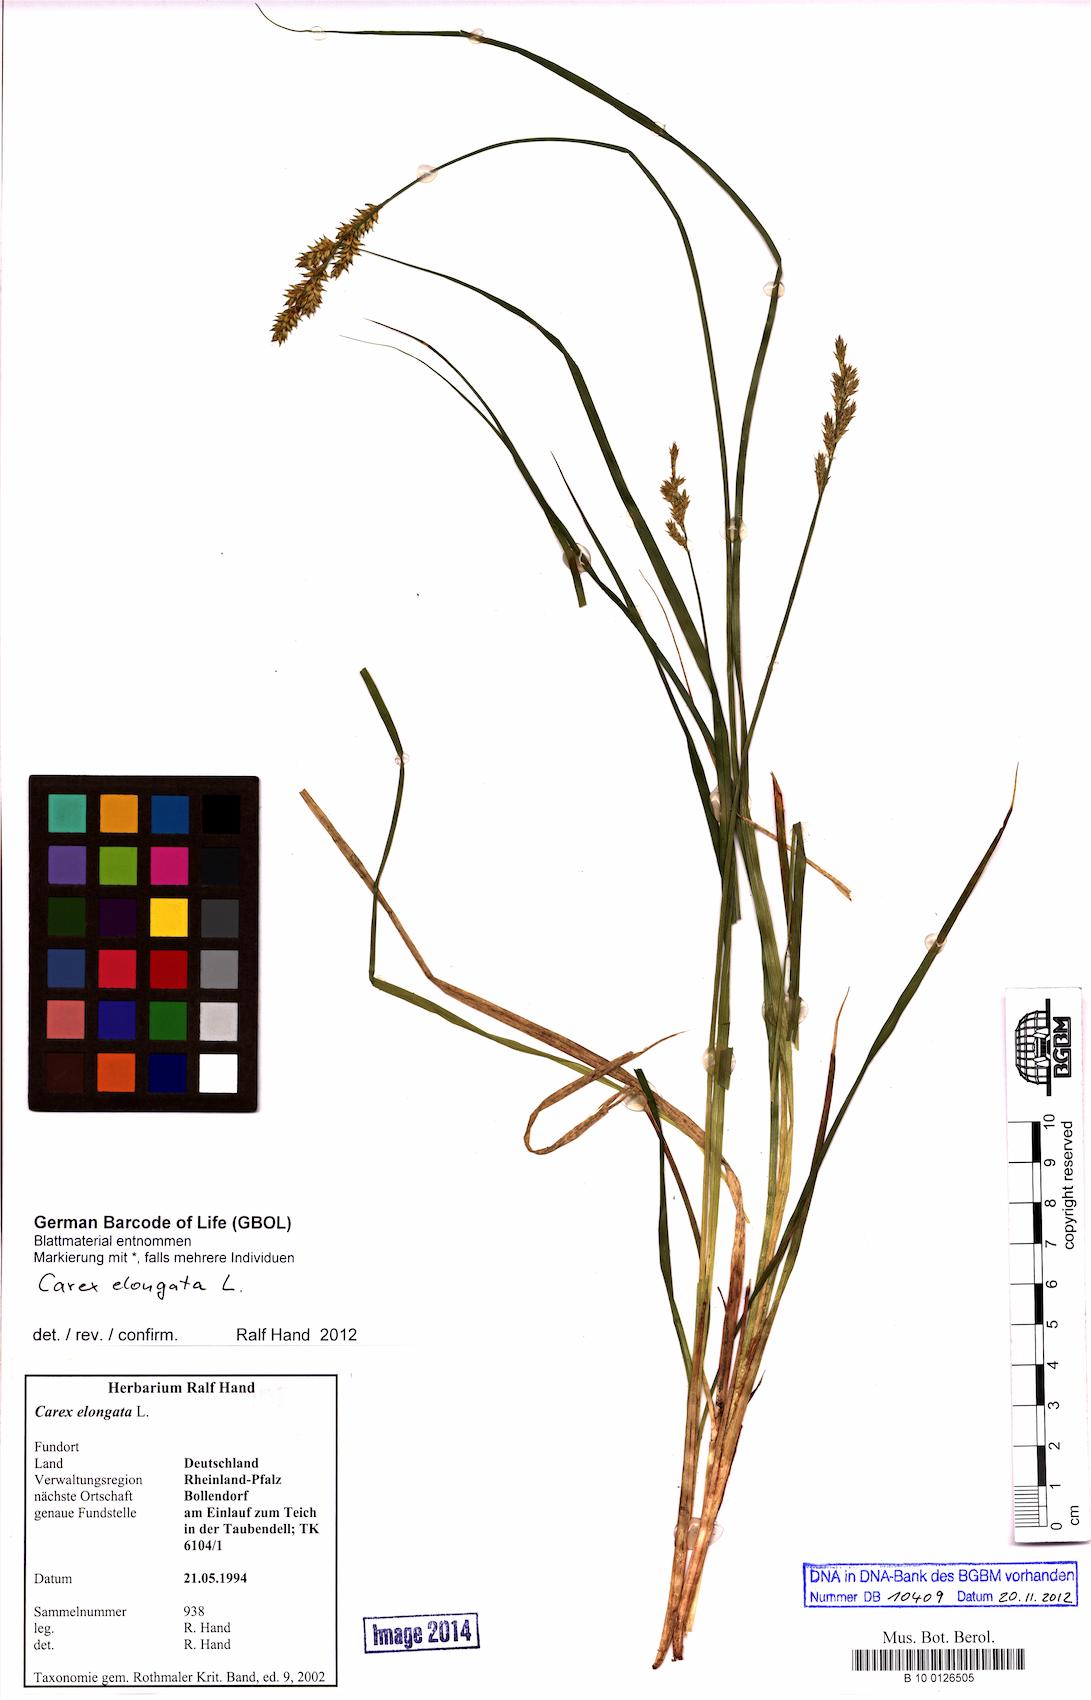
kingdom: Plantae
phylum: Tracheophyta
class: Liliopsida
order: Poales
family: Cyperaceae
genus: Carex
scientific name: Carex elongata
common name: Elongated sedge
